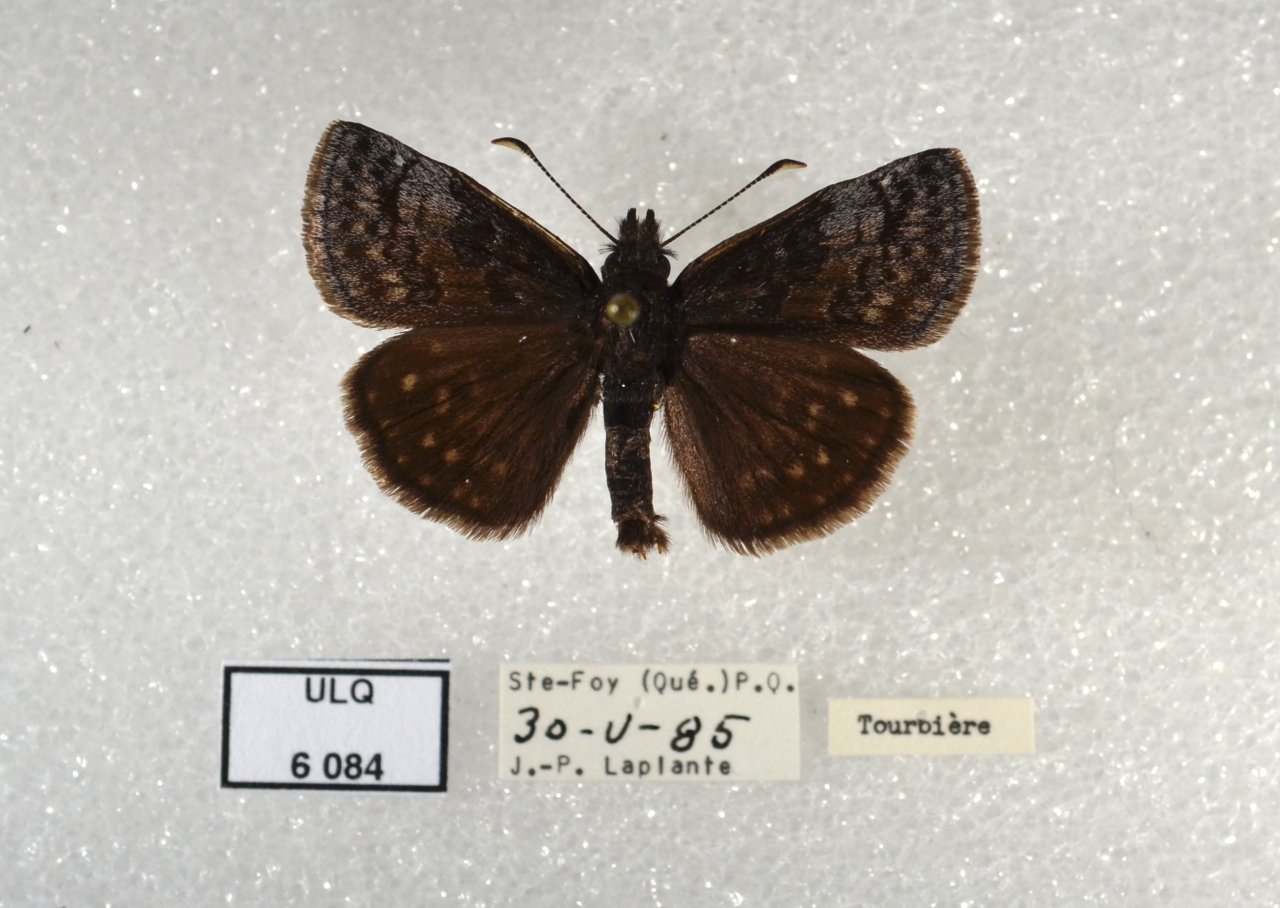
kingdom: Animalia
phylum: Arthropoda
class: Insecta
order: Lepidoptera
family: Hesperiidae
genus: Erynnis
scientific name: Erynnis icelus
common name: Dreamy Duskywing
